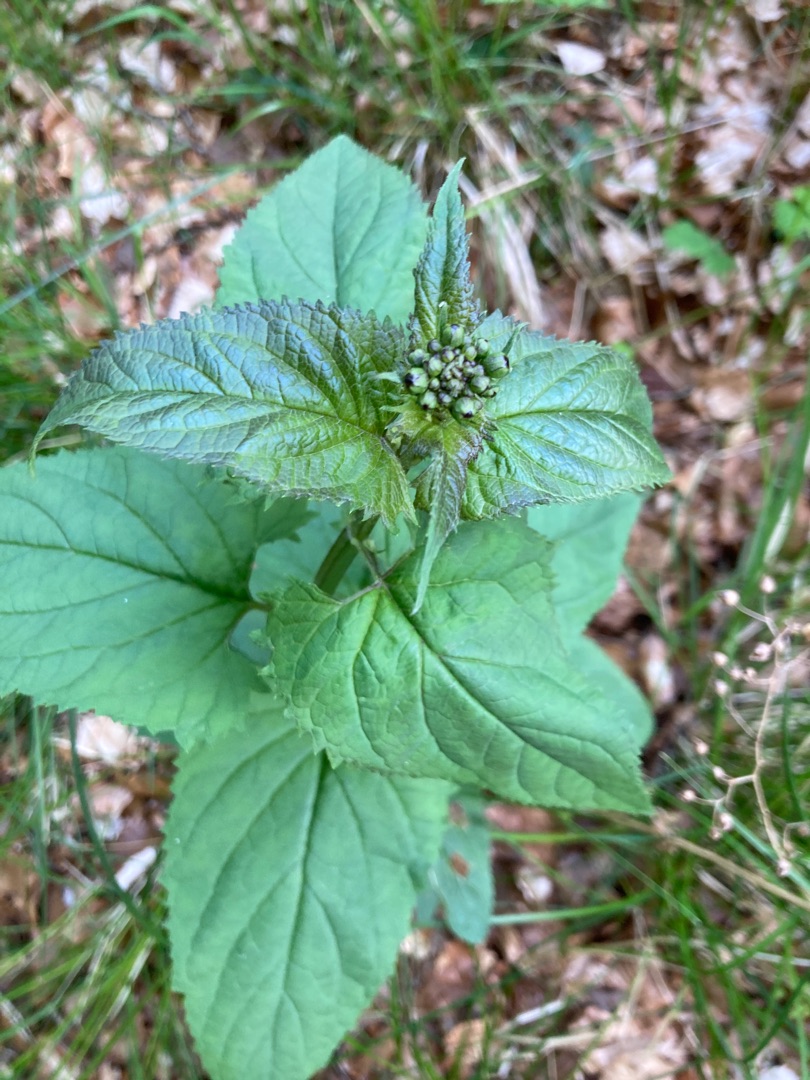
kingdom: Plantae
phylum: Tracheophyta
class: Magnoliopsida
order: Lamiales
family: Scrophulariaceae
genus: Scrophularia
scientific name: Scrophularia nodosa
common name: Knoldet brunrod
